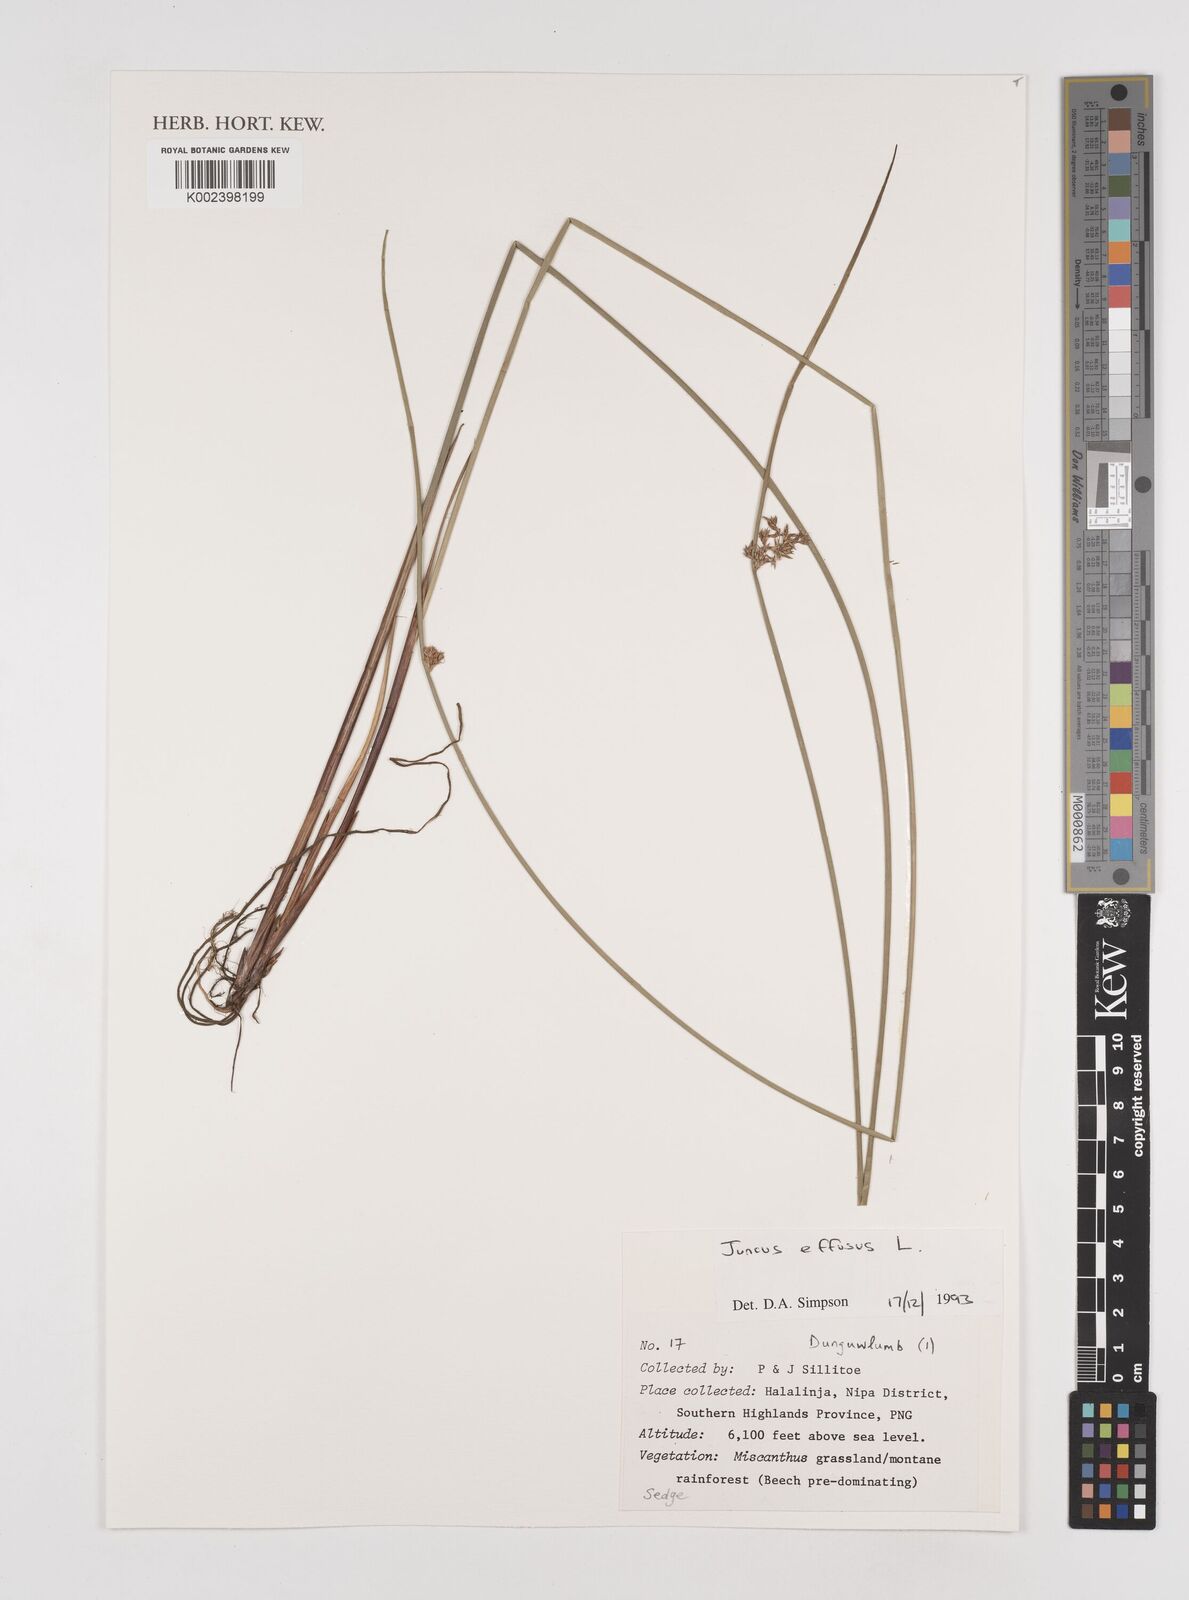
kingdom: Plantae
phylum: Tracheophyta
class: Liliopsida
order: Poales
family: Juncaceae
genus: Juncus
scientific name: Juncus decipiens
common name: Lamp rush
